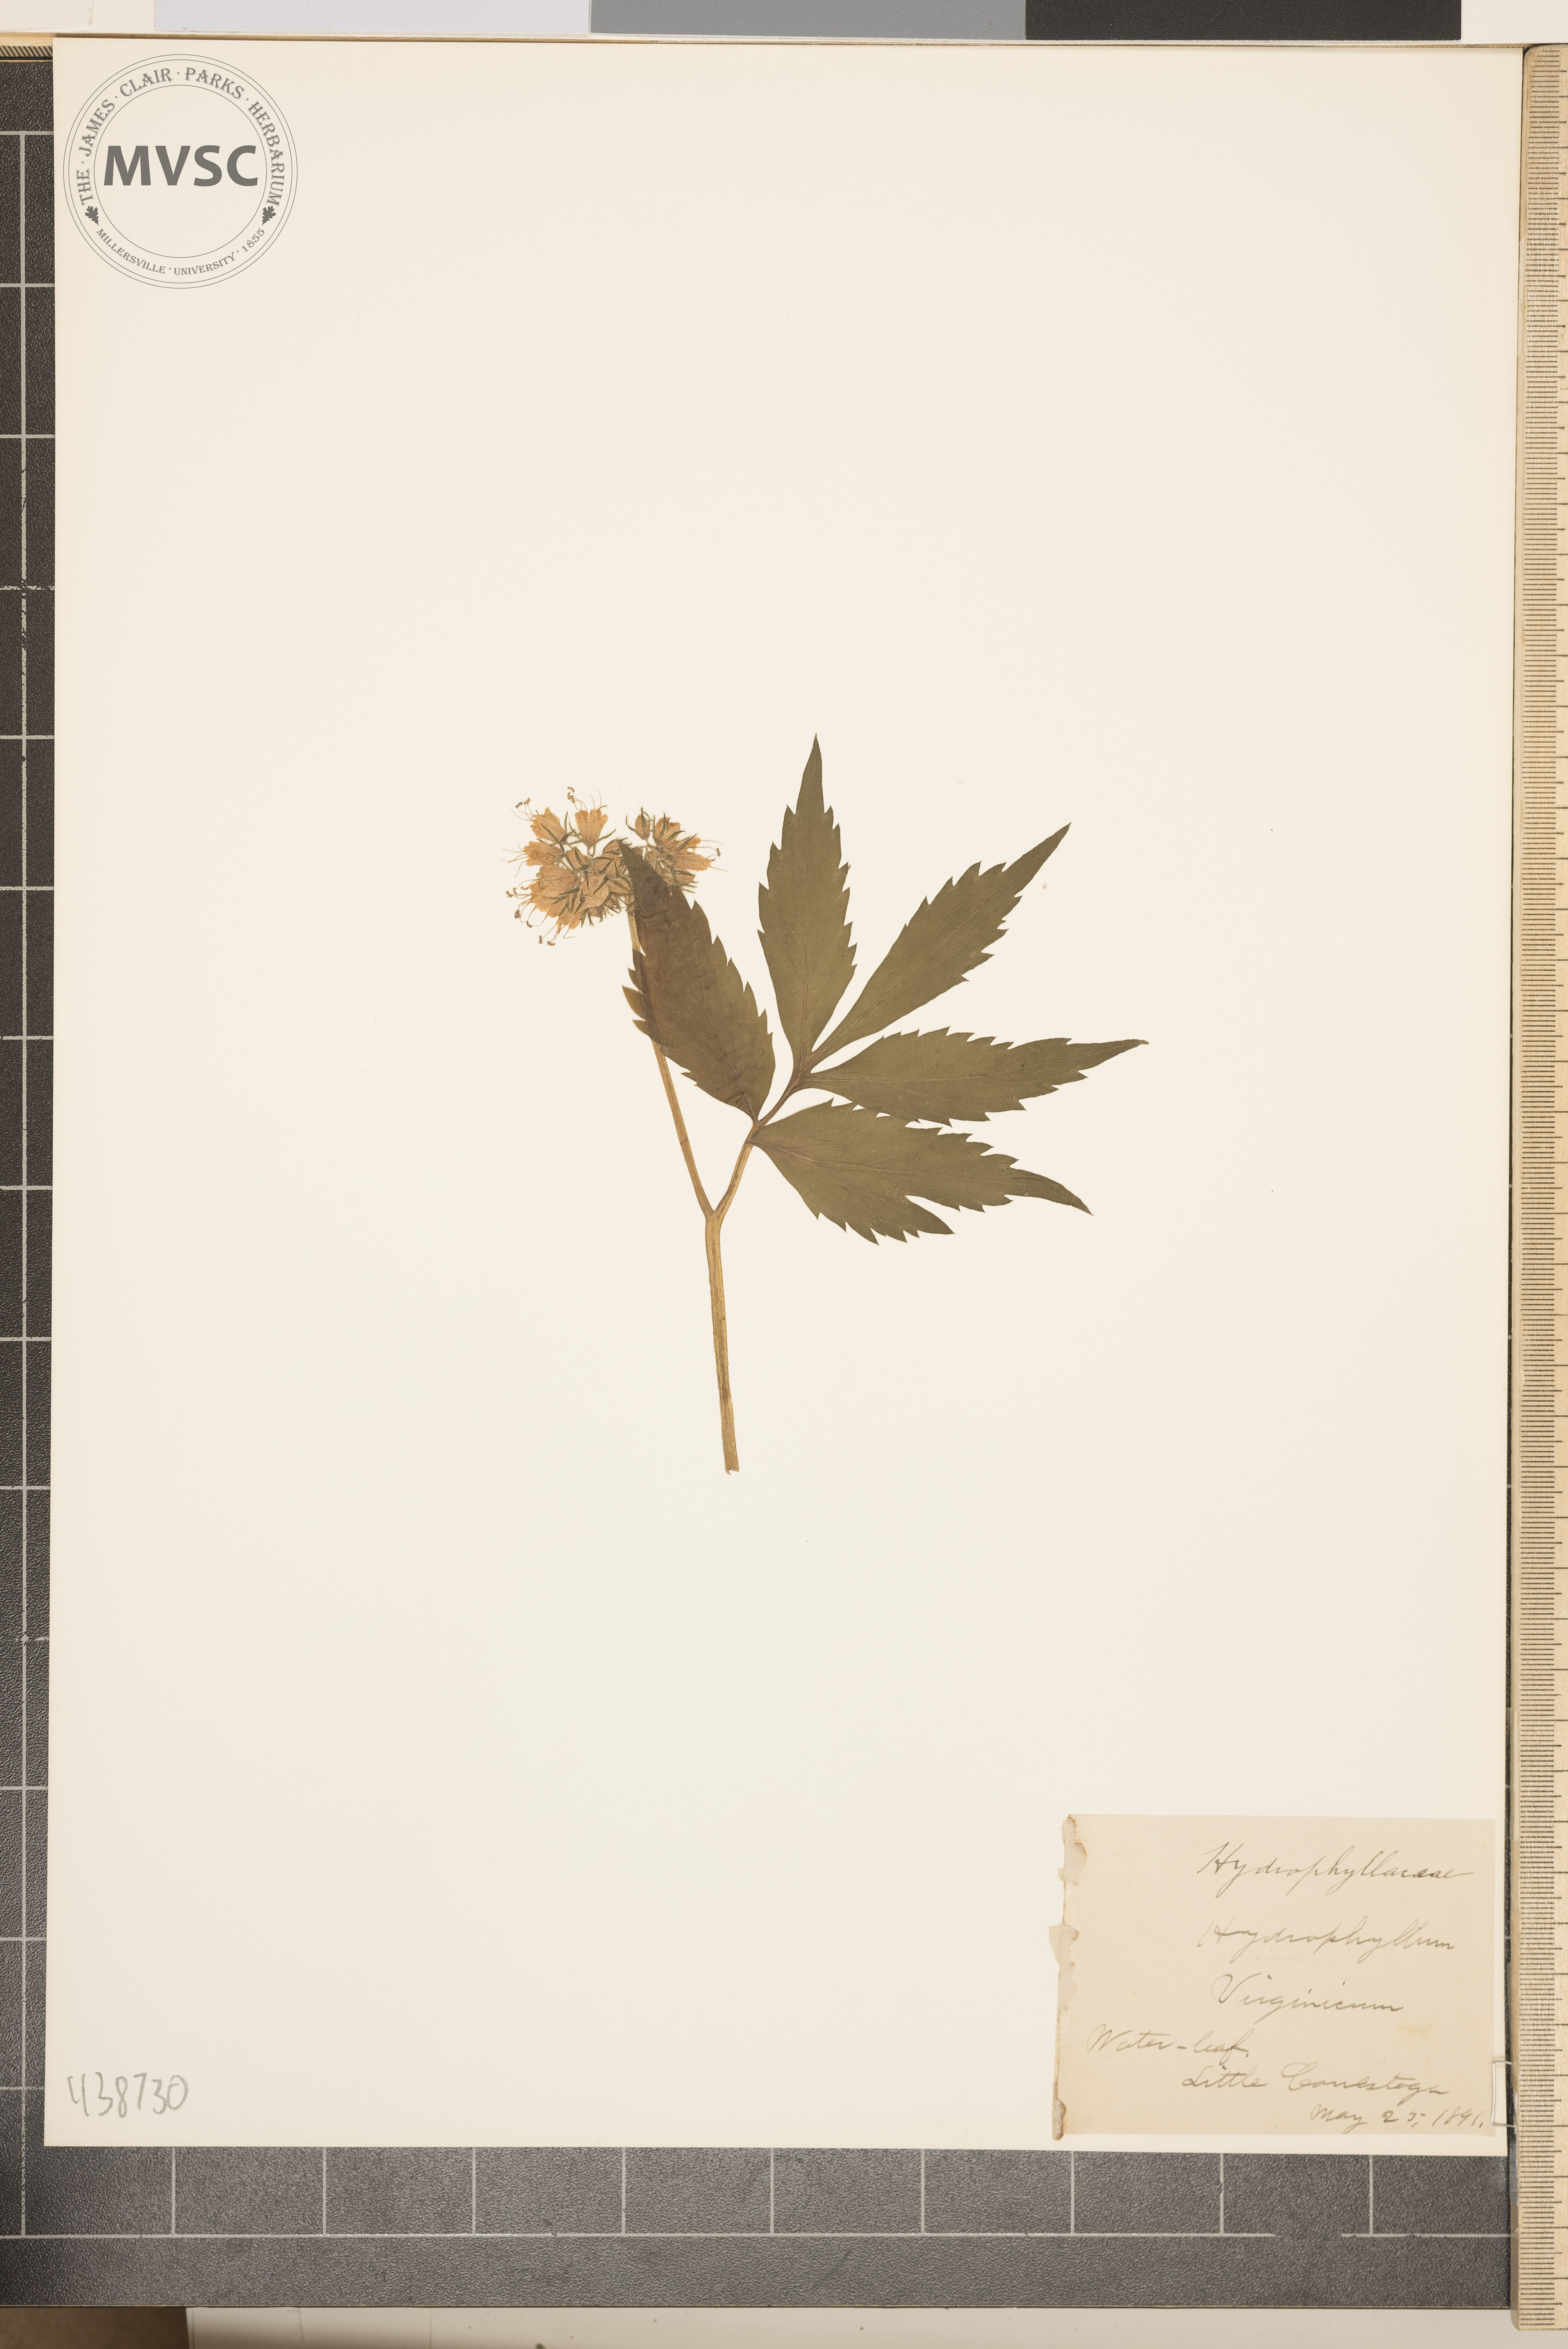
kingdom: Plantae
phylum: Tracheophyta
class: Magnoliopsida
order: Boraginales
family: Hydrophyllaceae
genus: Hydrophyllum
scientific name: Hydrophyllum virginianum
